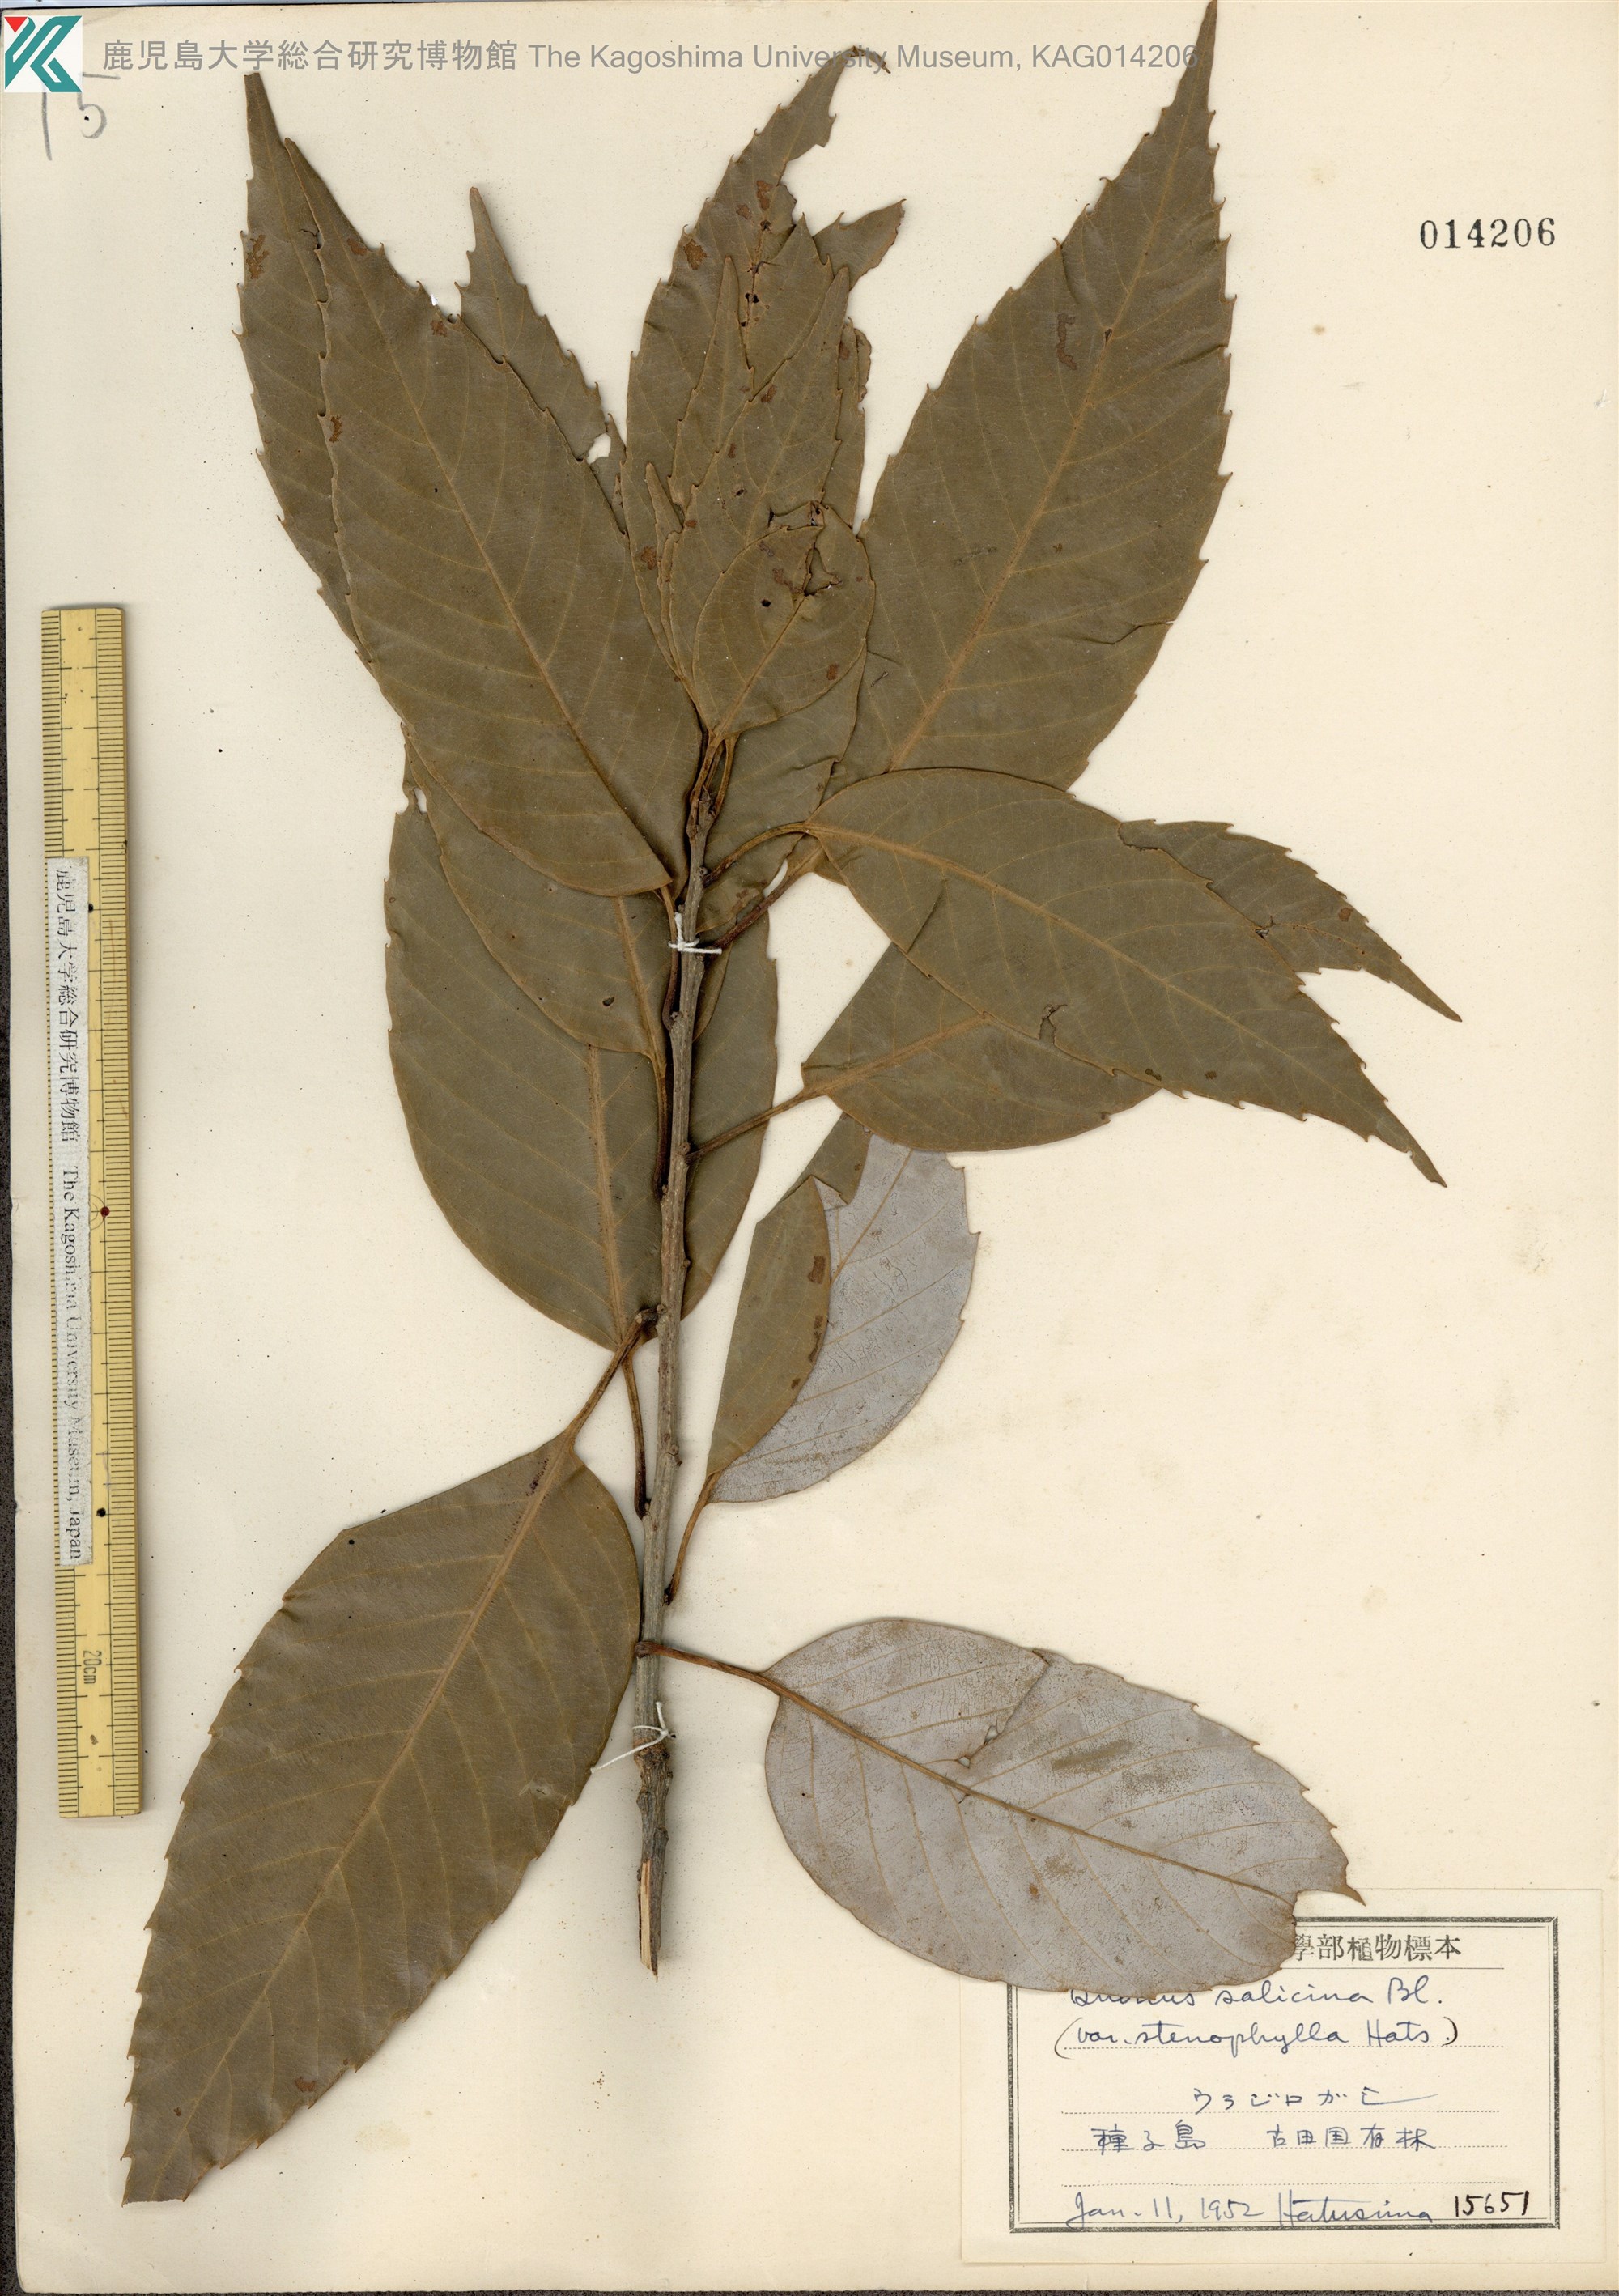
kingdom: Plantae
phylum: Tracheophyta
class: Magnoliopsida
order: Fagales
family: Fagaceae
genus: Quercus
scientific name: Quercus salicina
